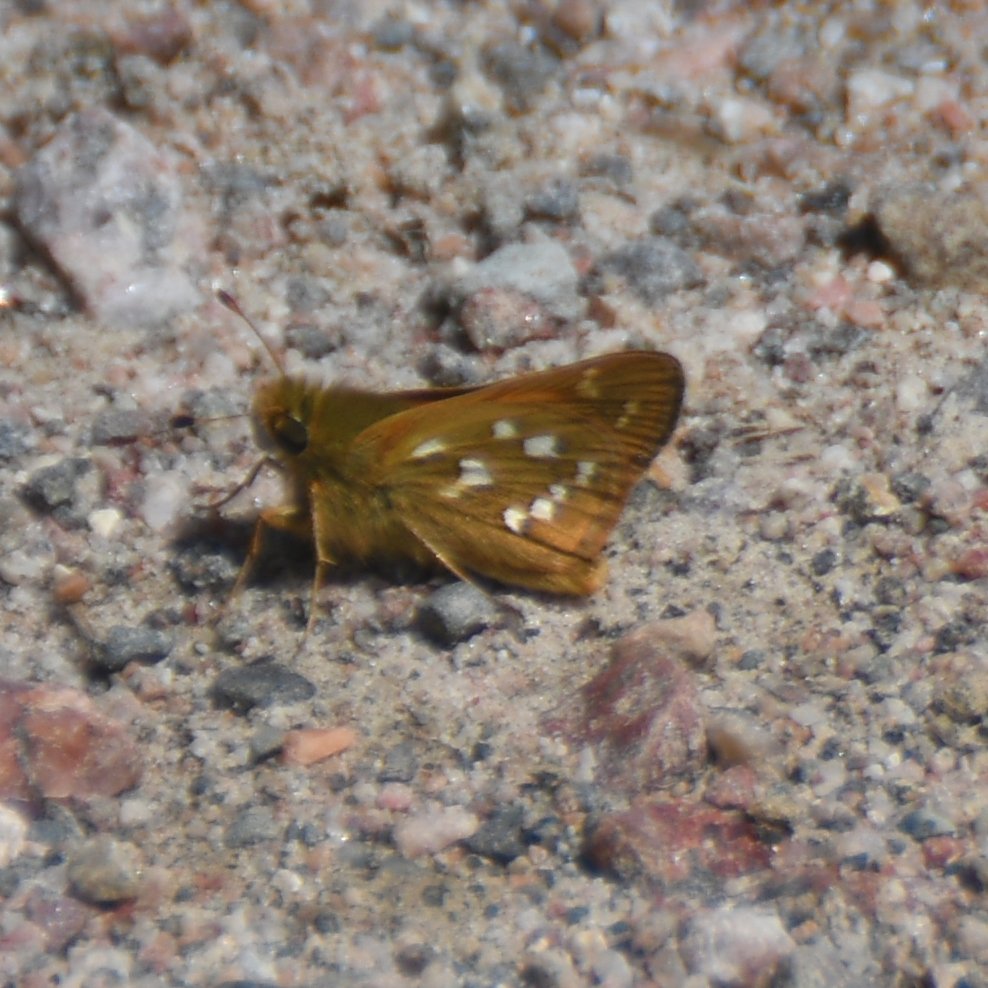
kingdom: Animalia
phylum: Arthropoda
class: Insecta
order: Lepidoptera
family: Hesperiidae
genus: Hesperia
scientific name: Hesperia comma
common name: Common Branded Skipper
